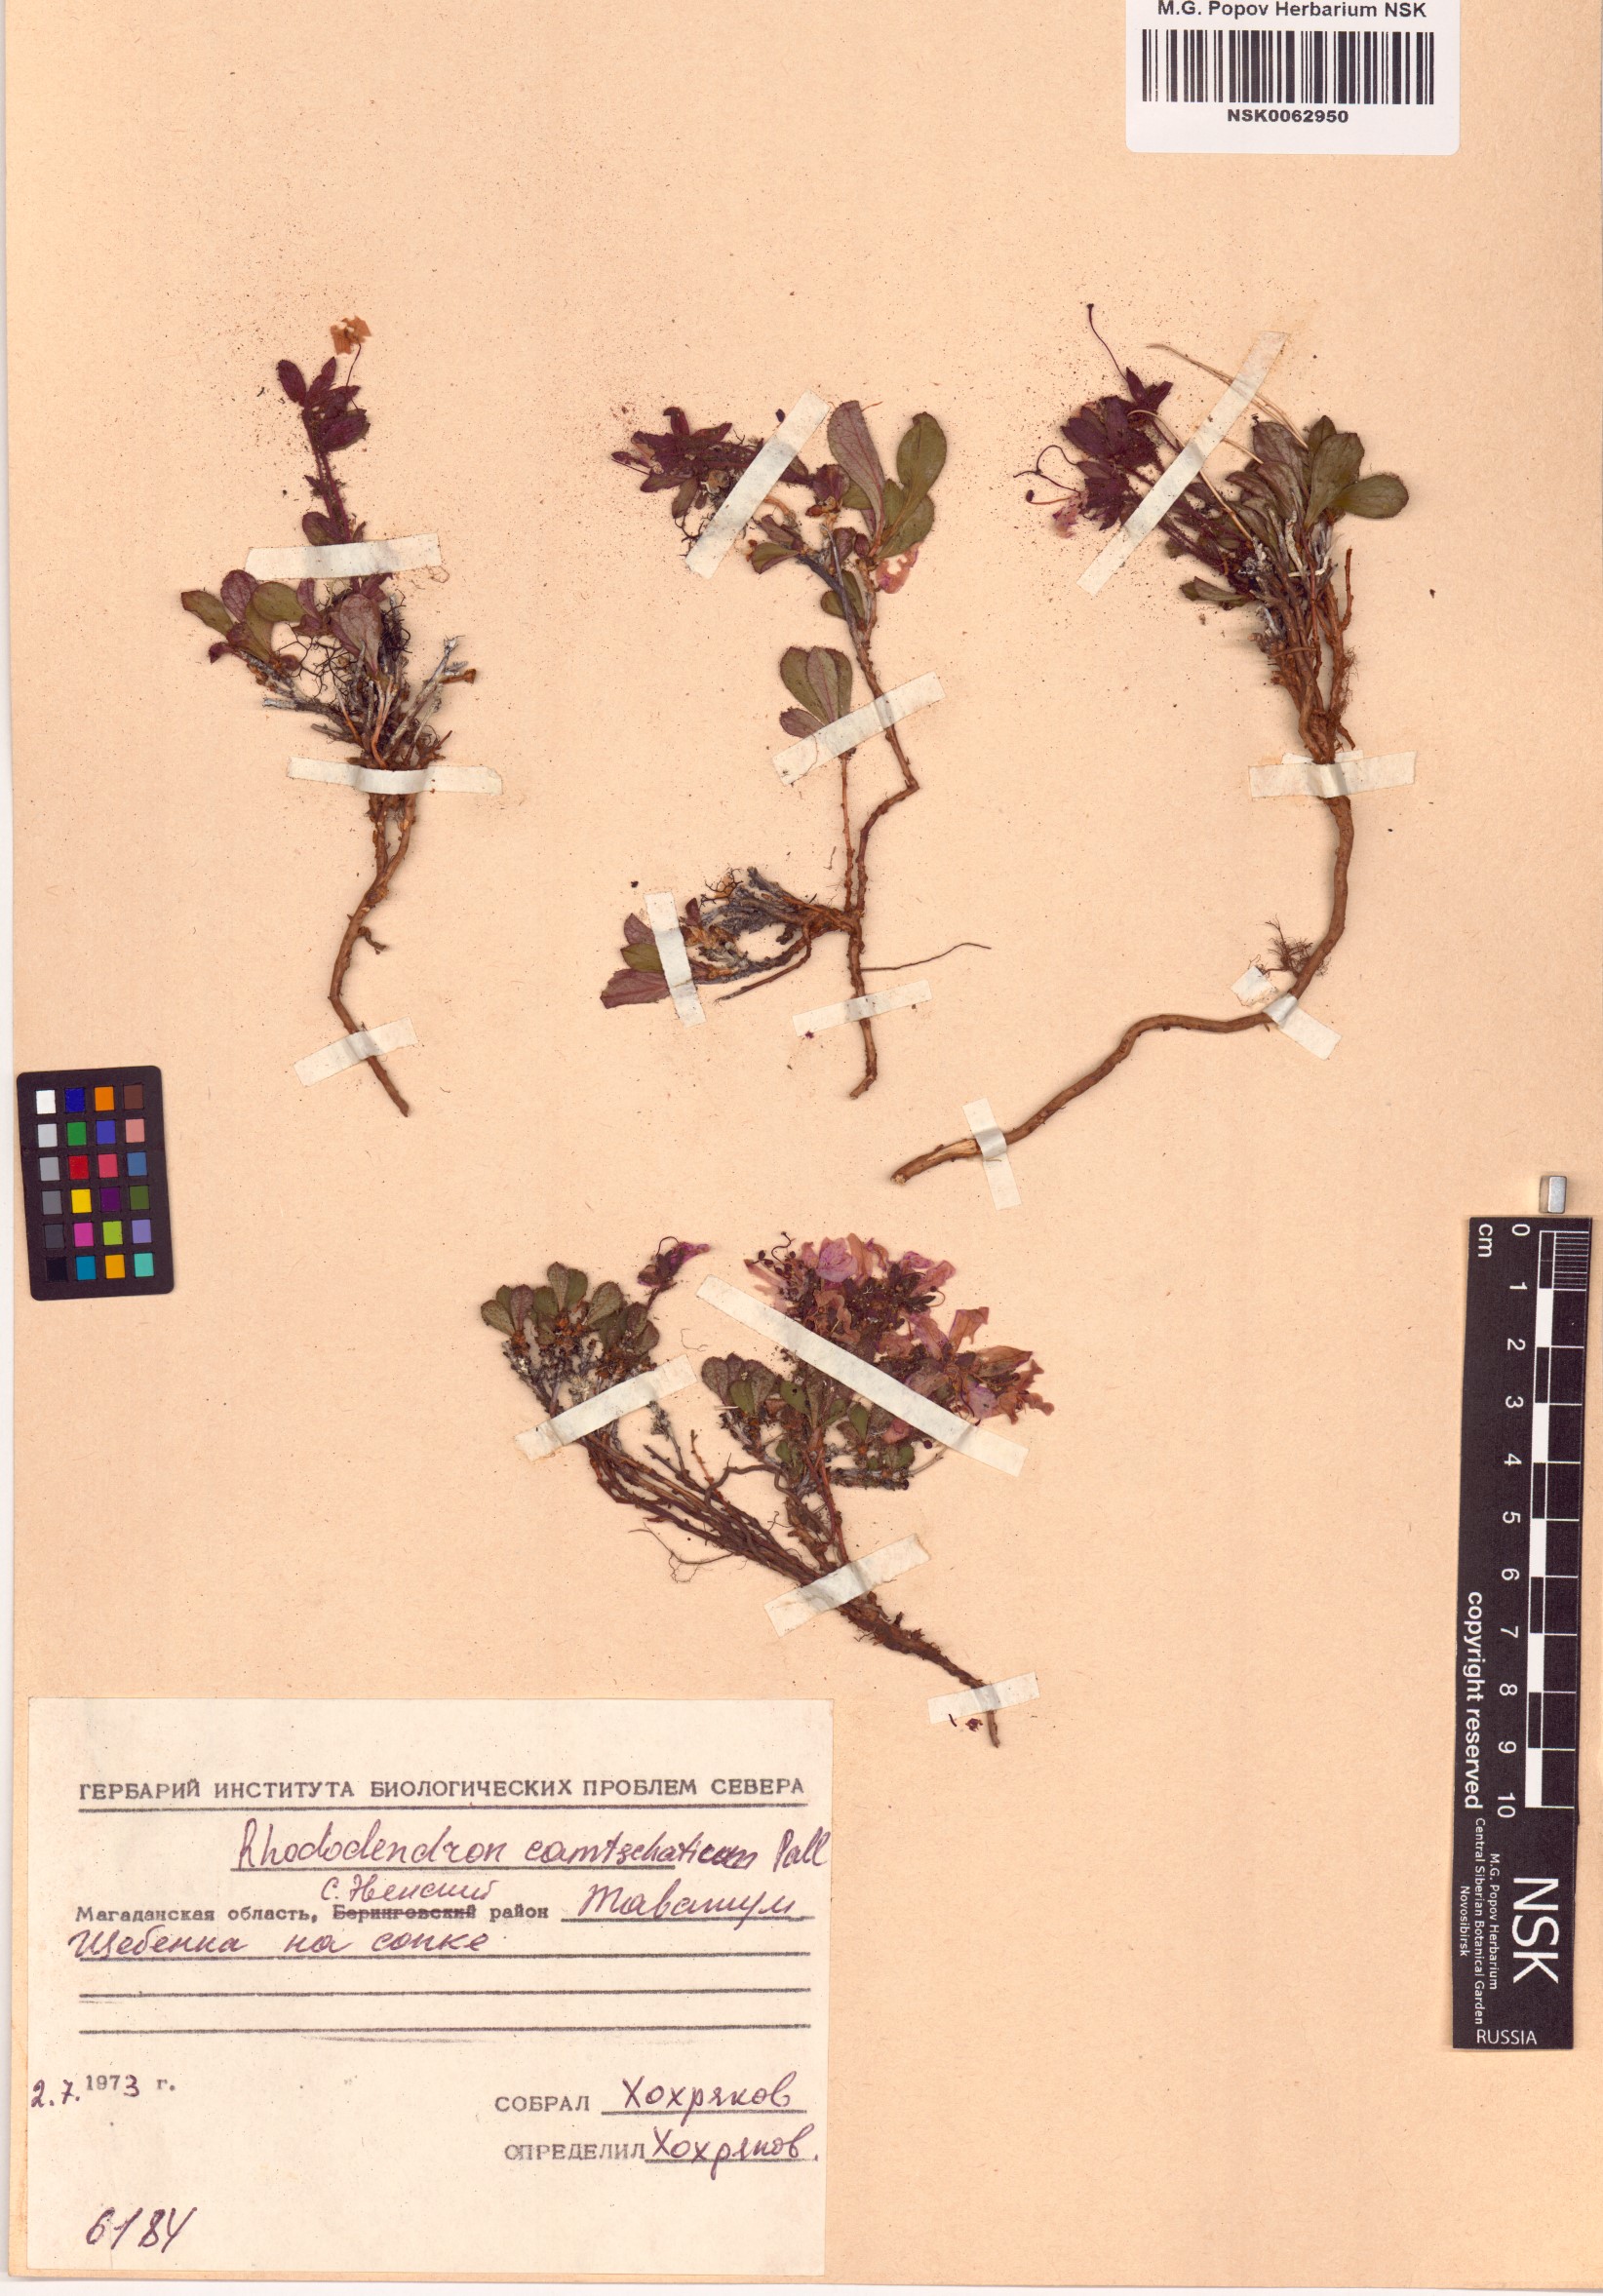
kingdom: Plantae
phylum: Tracheophyta
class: Magnoliopsida
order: Ericales
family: Ericaceae
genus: Rhododendron
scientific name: Rhododendron camtschaticum
